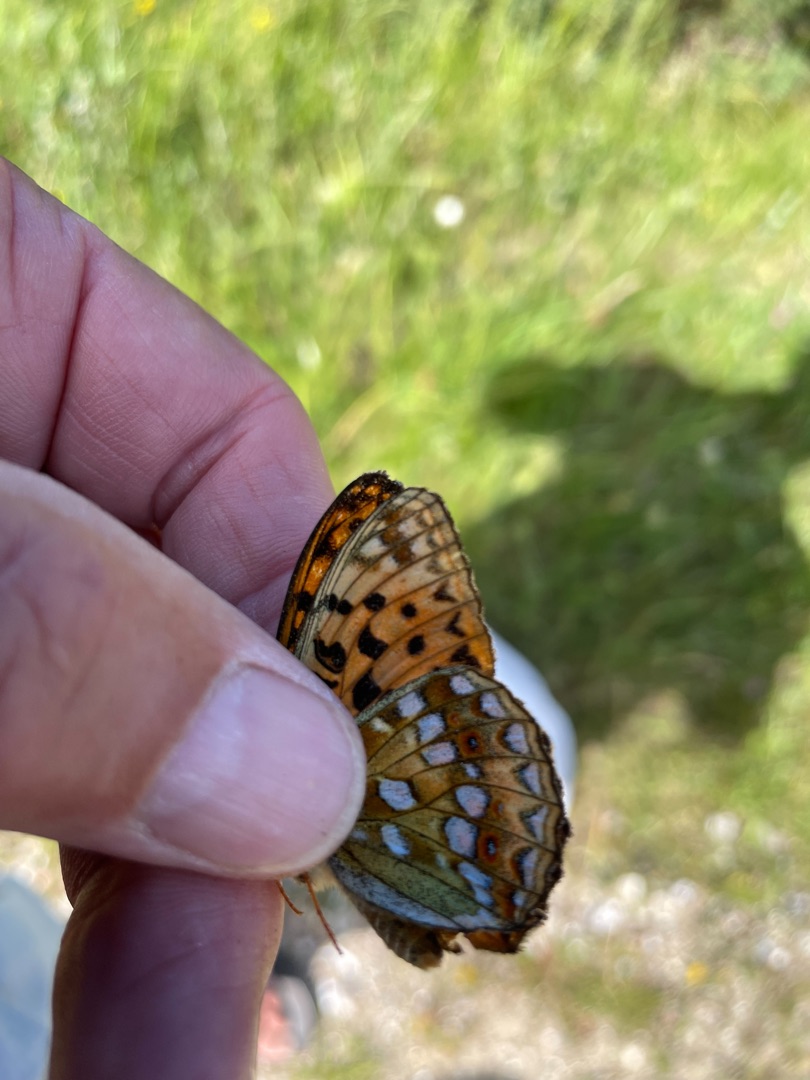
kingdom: Animalia
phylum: Arthropoda
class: Insecta
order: Lepidoptera
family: Nymphalidae
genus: Fabriciana
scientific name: Fabriciana adippe
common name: Skovperlemorsommerfugl
